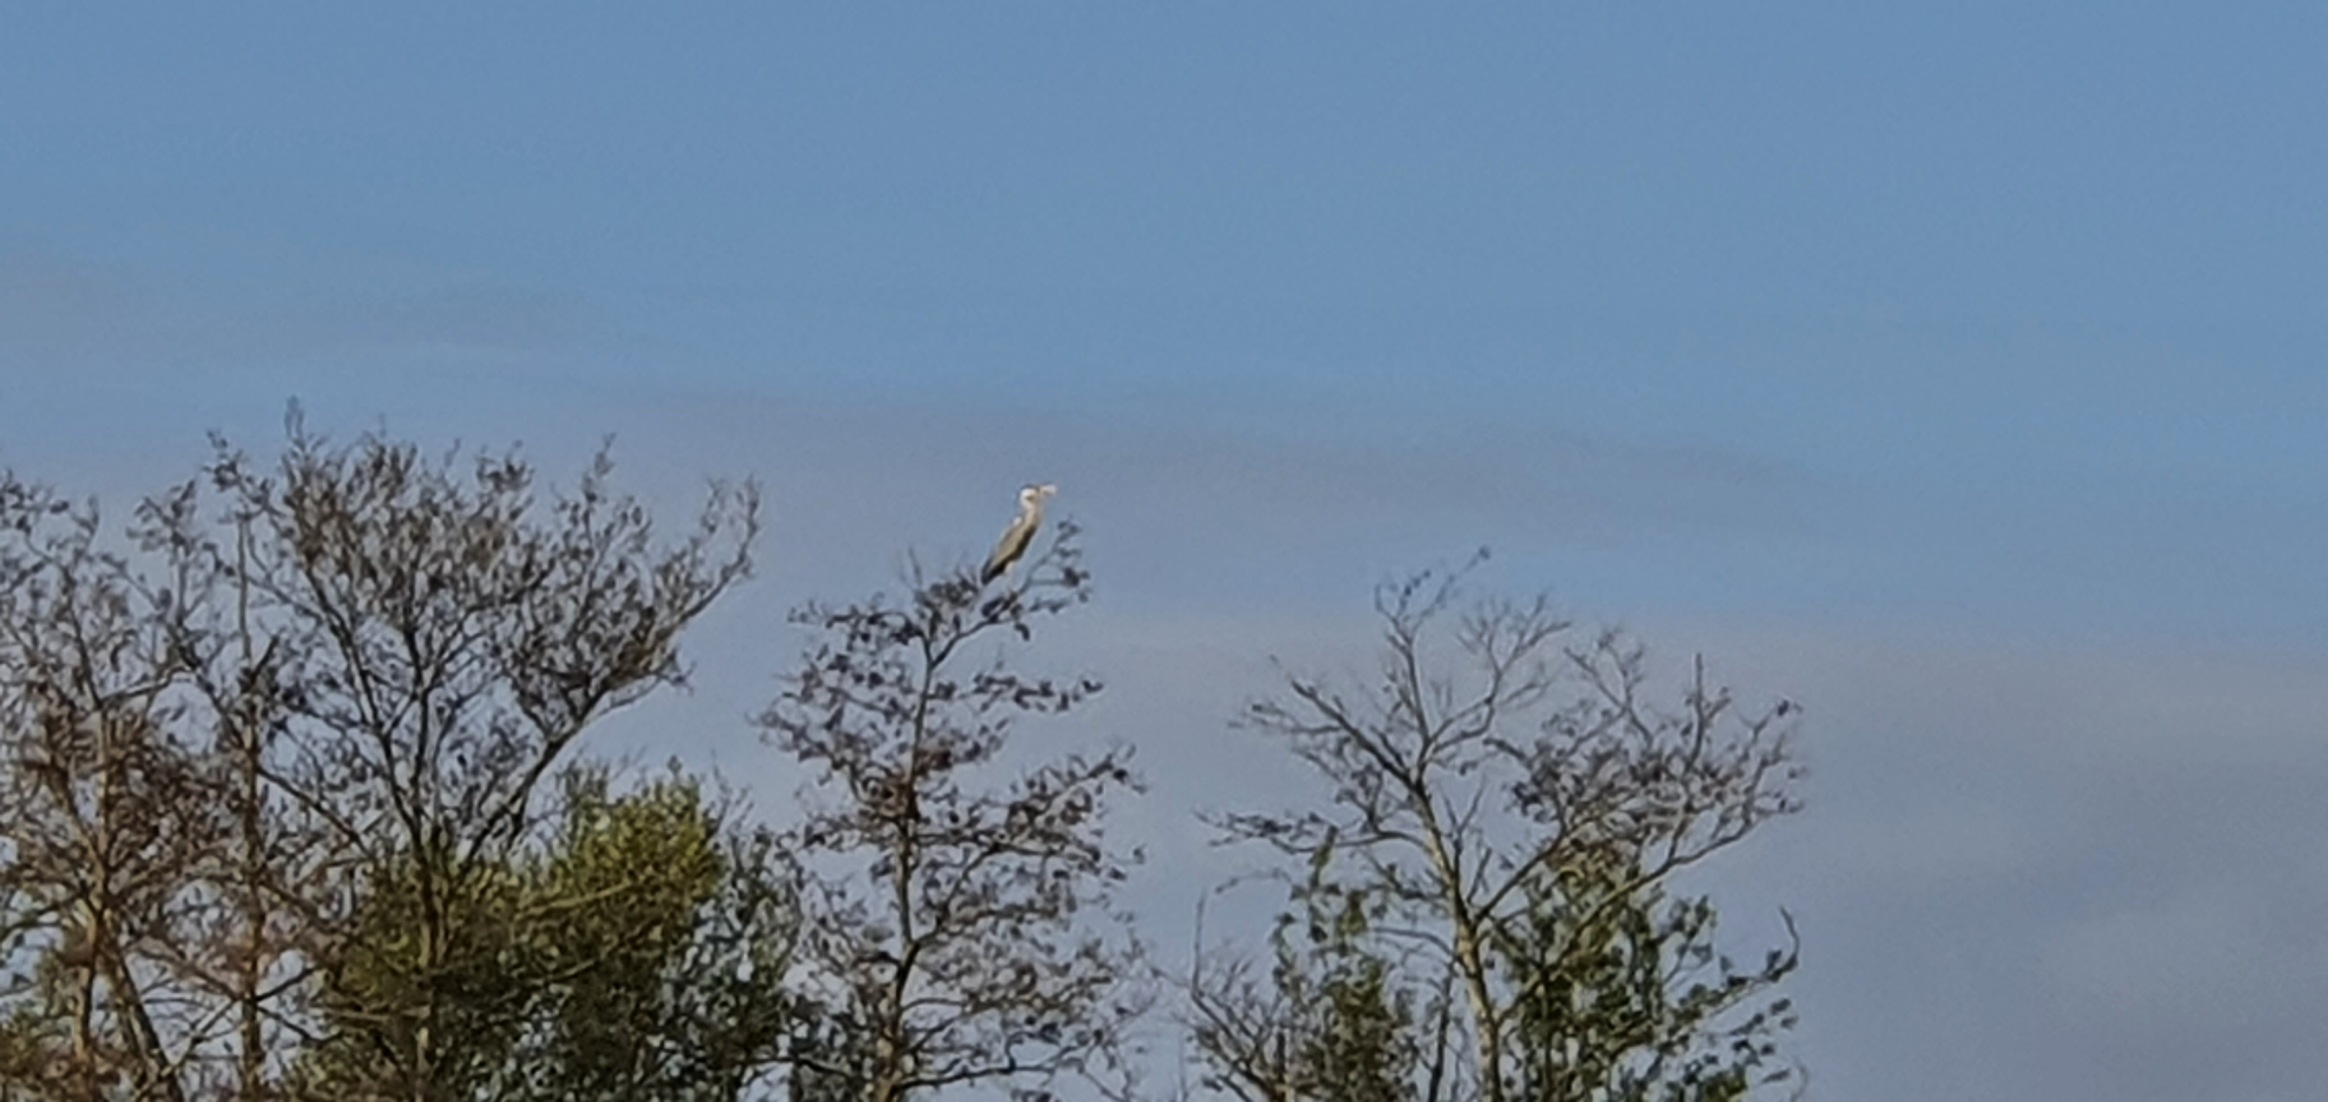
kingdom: Animalia
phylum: Chordata
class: Aves
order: Pelecaniformes
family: Ardeidae
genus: Ardea
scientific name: Ardea cinerea
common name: Fiskehejre
